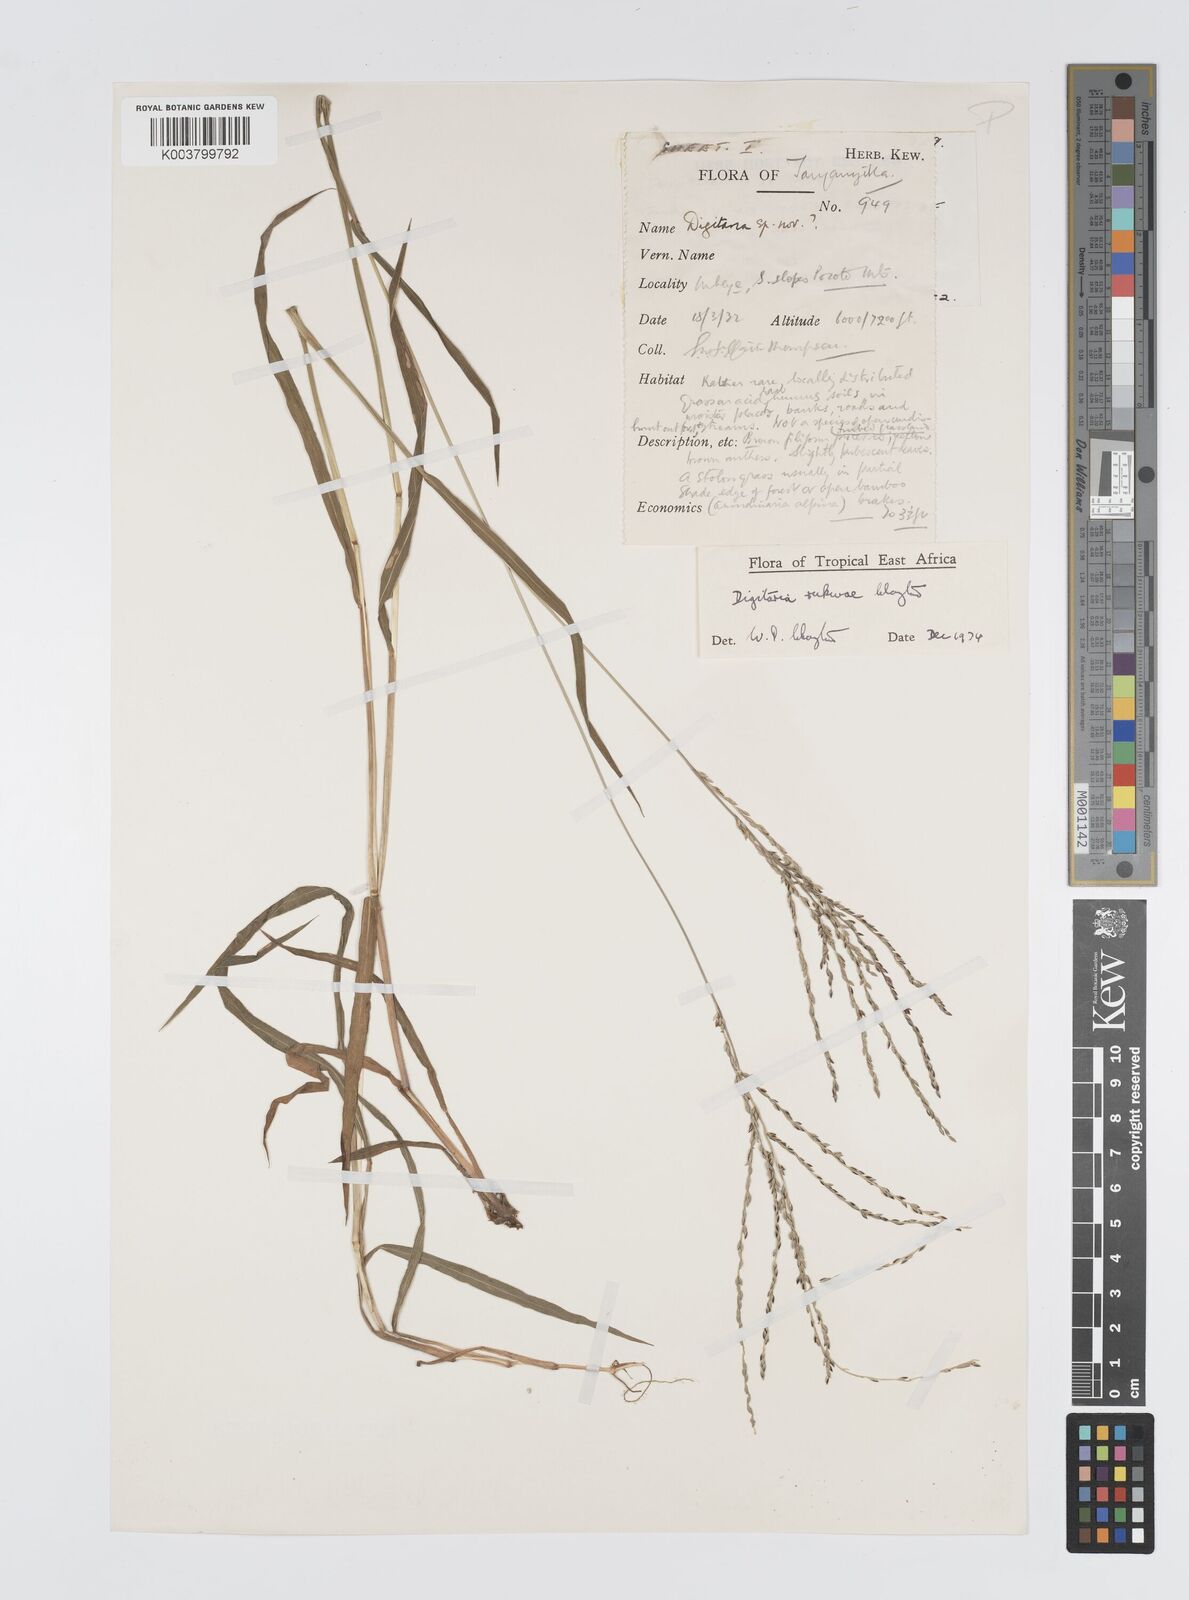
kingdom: Plantae
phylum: Tracheophyta
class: Liliopsida
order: Poales
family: Poaceae
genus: Digitaria
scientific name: Digitaria rukwae
